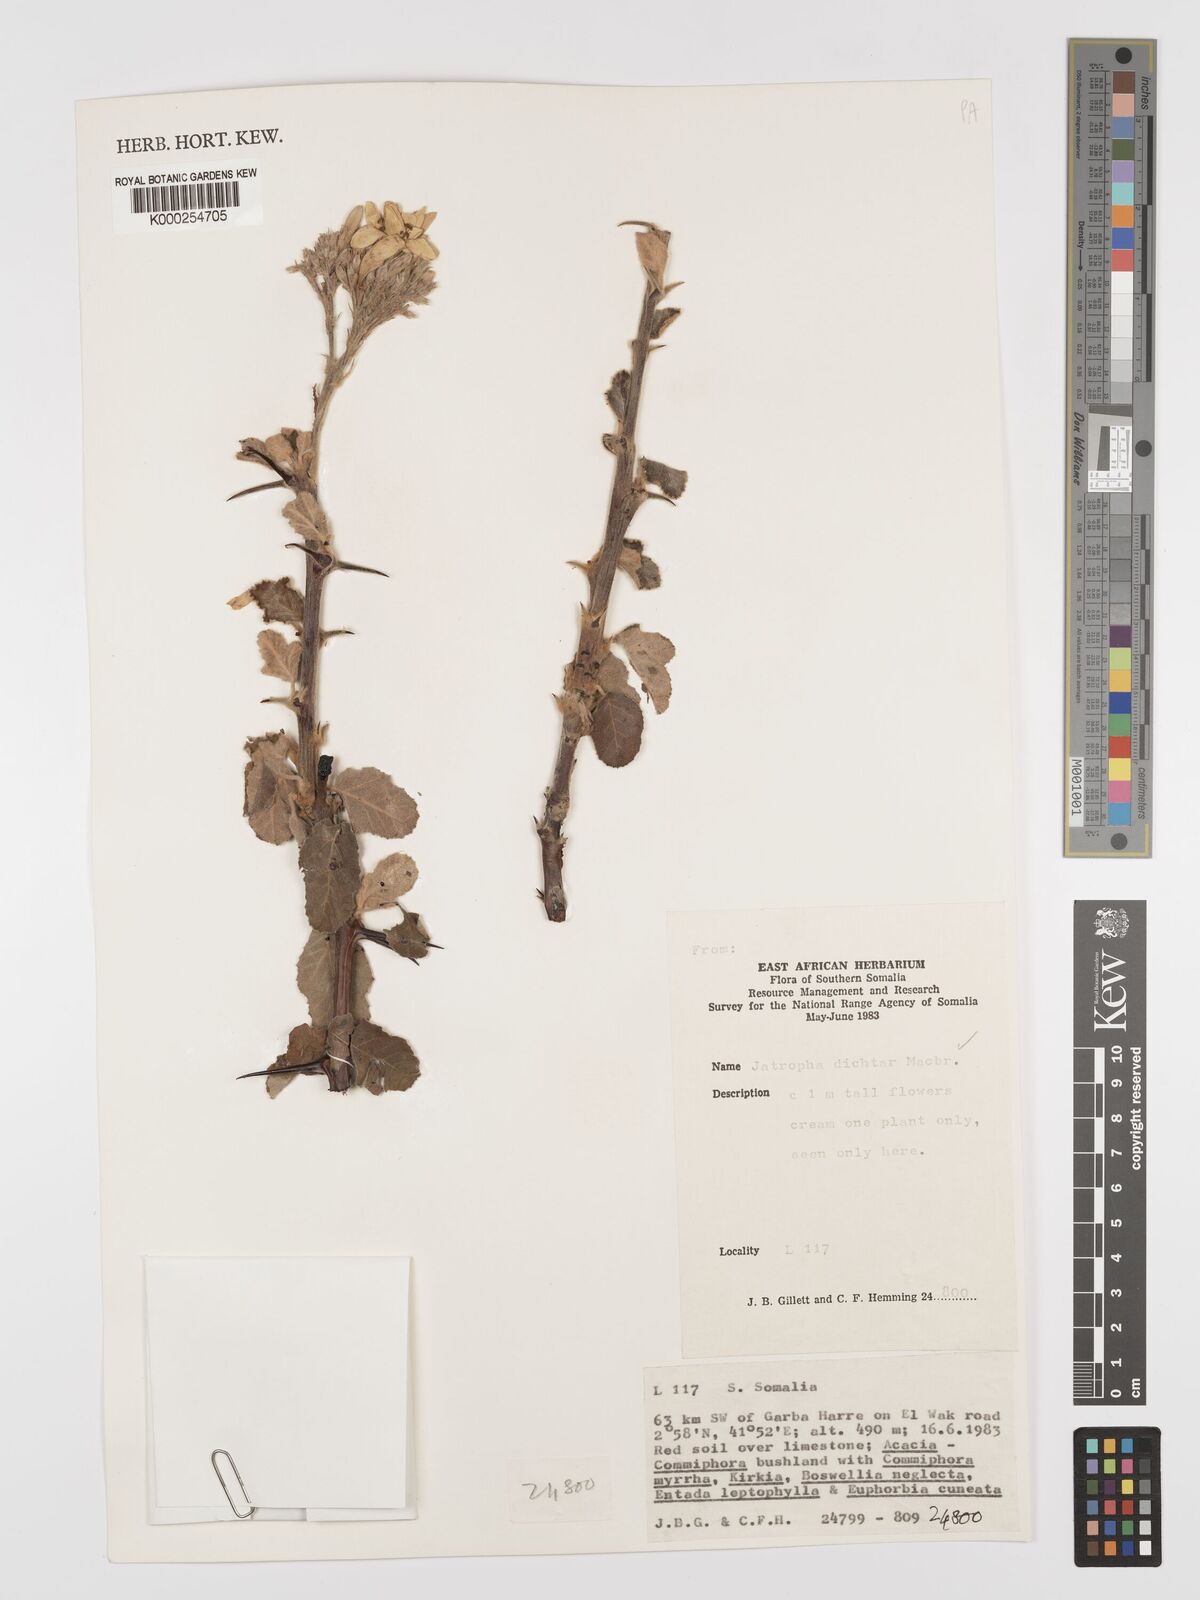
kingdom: Plantae
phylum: Tracheophyta
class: Magnoliopsida
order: Malpighiales
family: Euphorbiaceae
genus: Jatropha
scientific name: Jatropha dichtar
